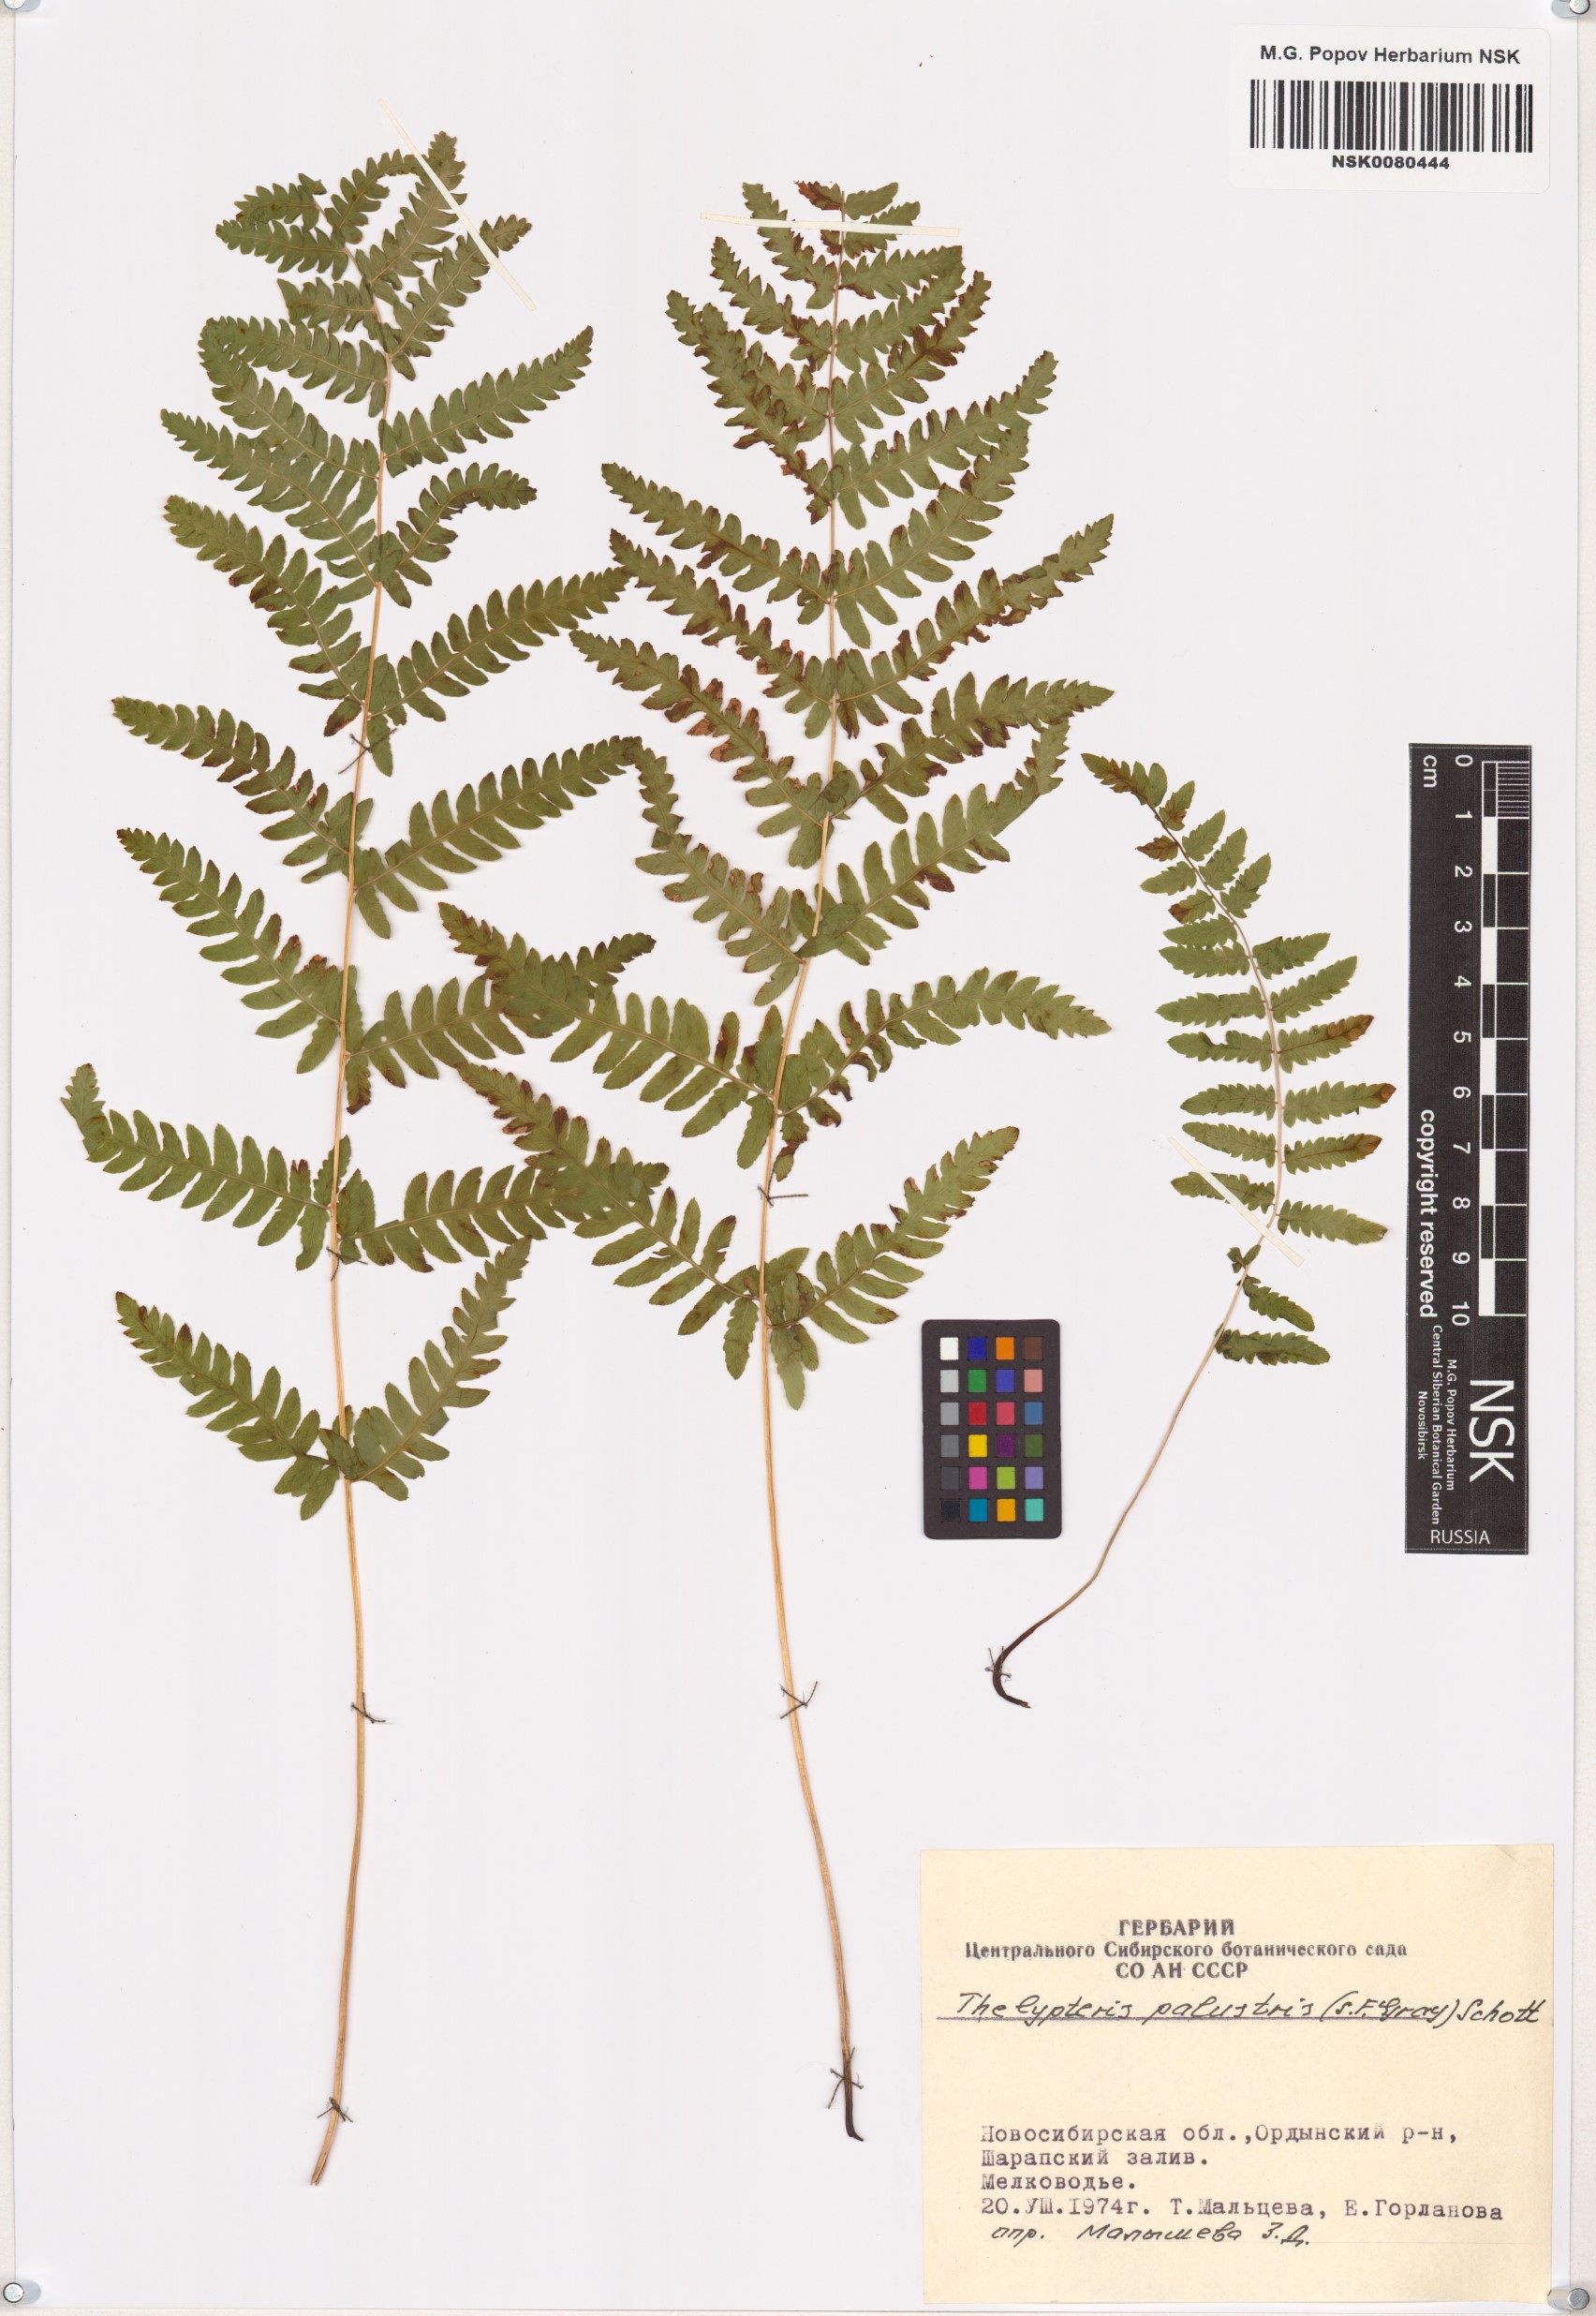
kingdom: Plantae
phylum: Tracheophyta
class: Polypodiopsida
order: Polypodiales
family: Thelypteridaceae
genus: Thelypteris
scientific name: Thelypteris palustris
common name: Marsh fern
